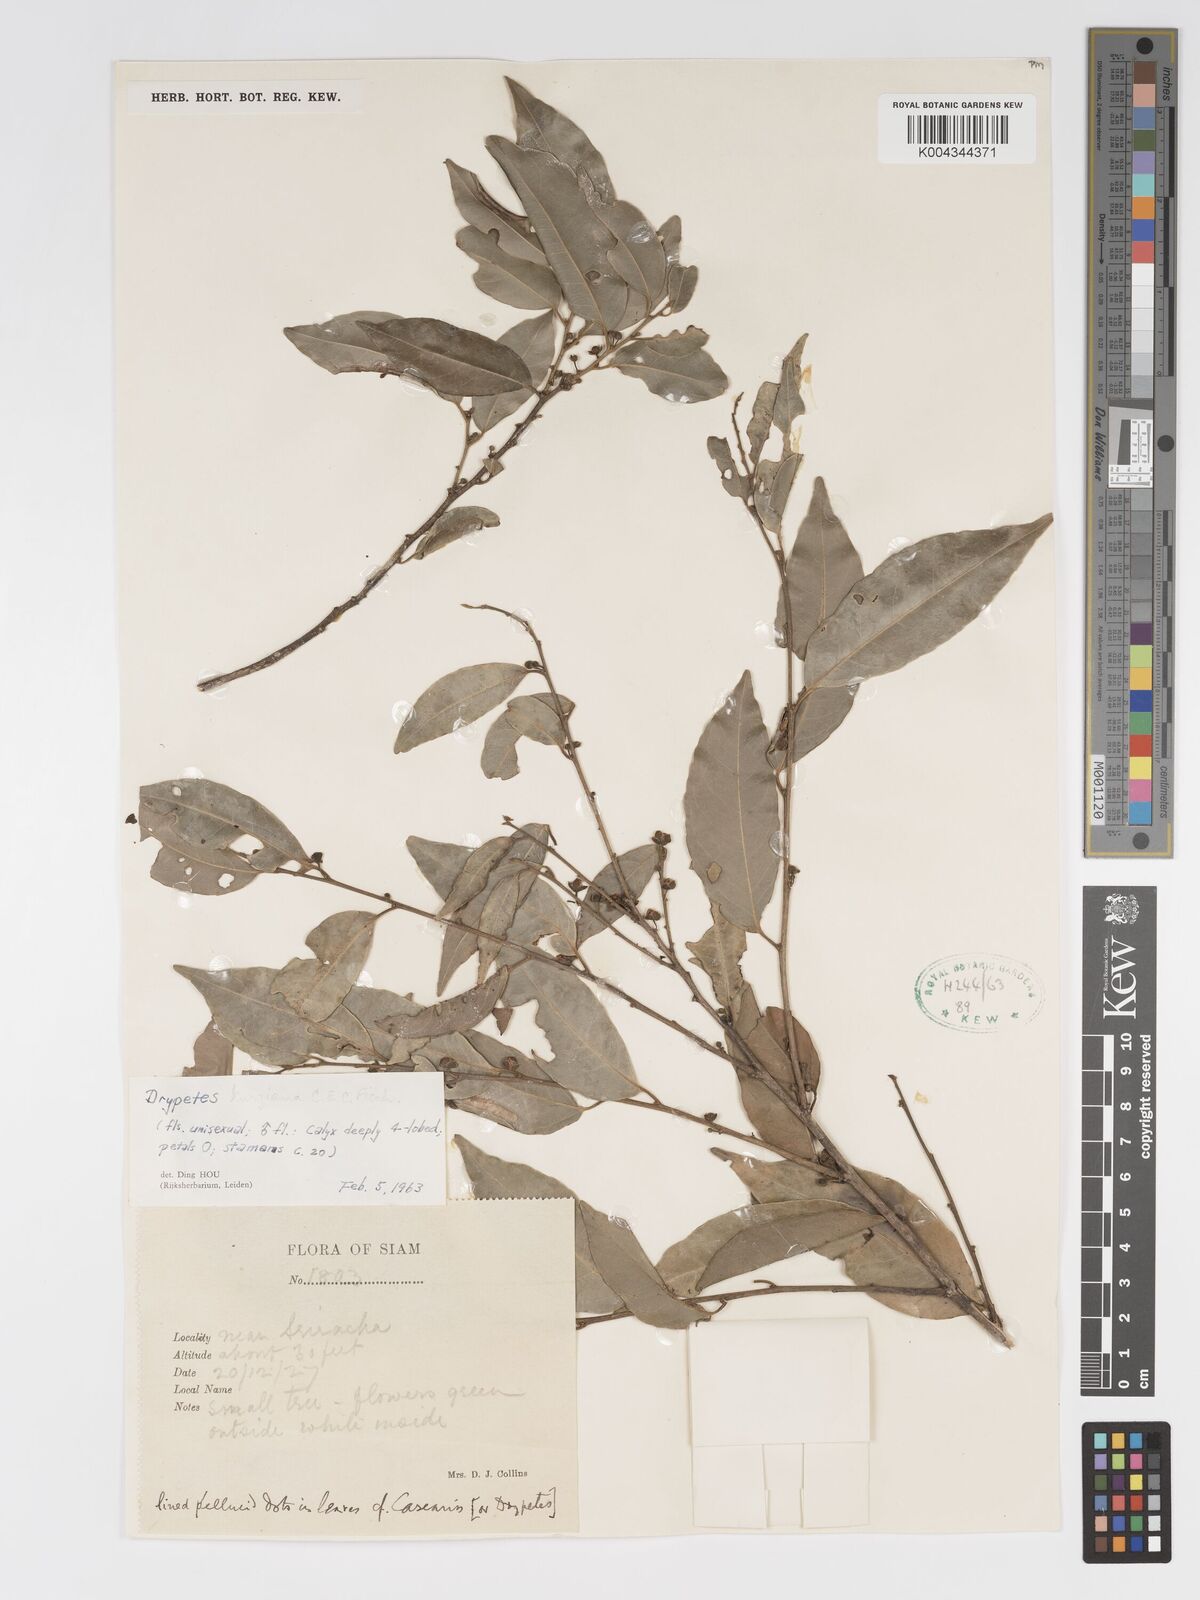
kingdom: Plantae
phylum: Tracheophyta
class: Magnoliopsida
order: Malpighiales
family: Putranjivaceae
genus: Drypetes
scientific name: Drypetes cambodica
